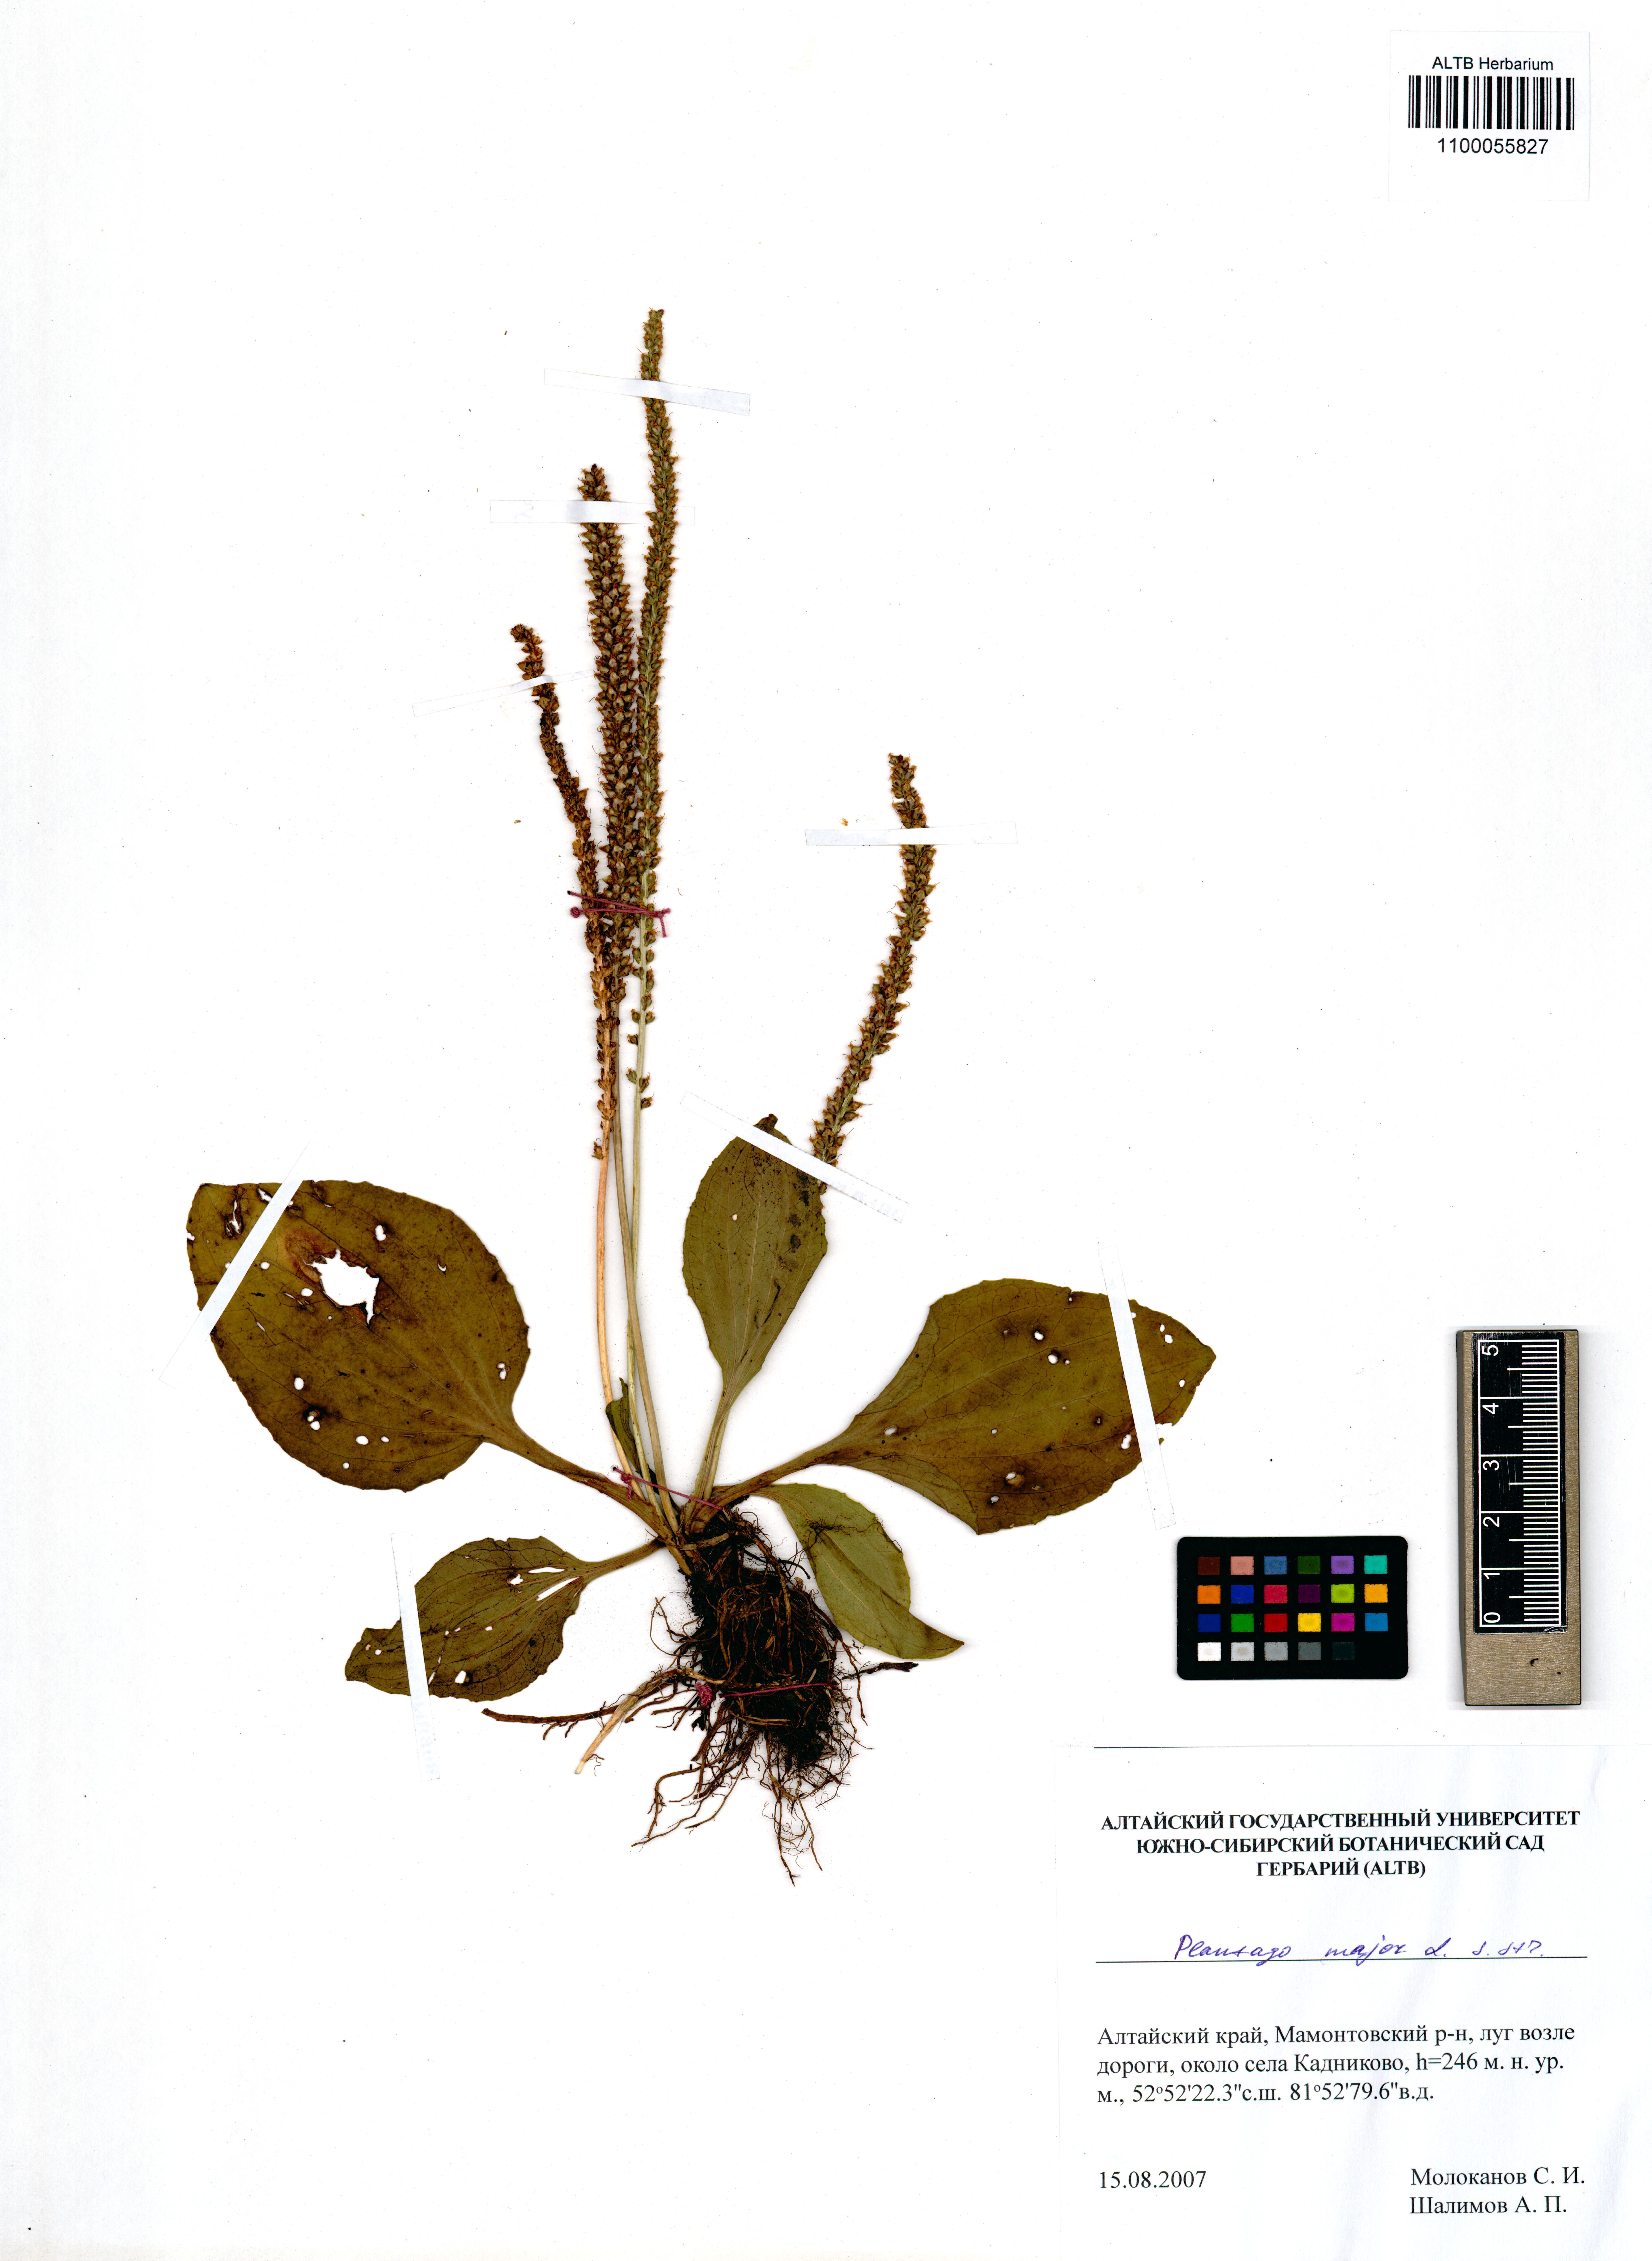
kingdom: Plantae
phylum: Tracheophyta
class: Magnoliopsida
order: Lamiales
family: Plantaginaceae
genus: Plantago
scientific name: Plantago major
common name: Common plantain
